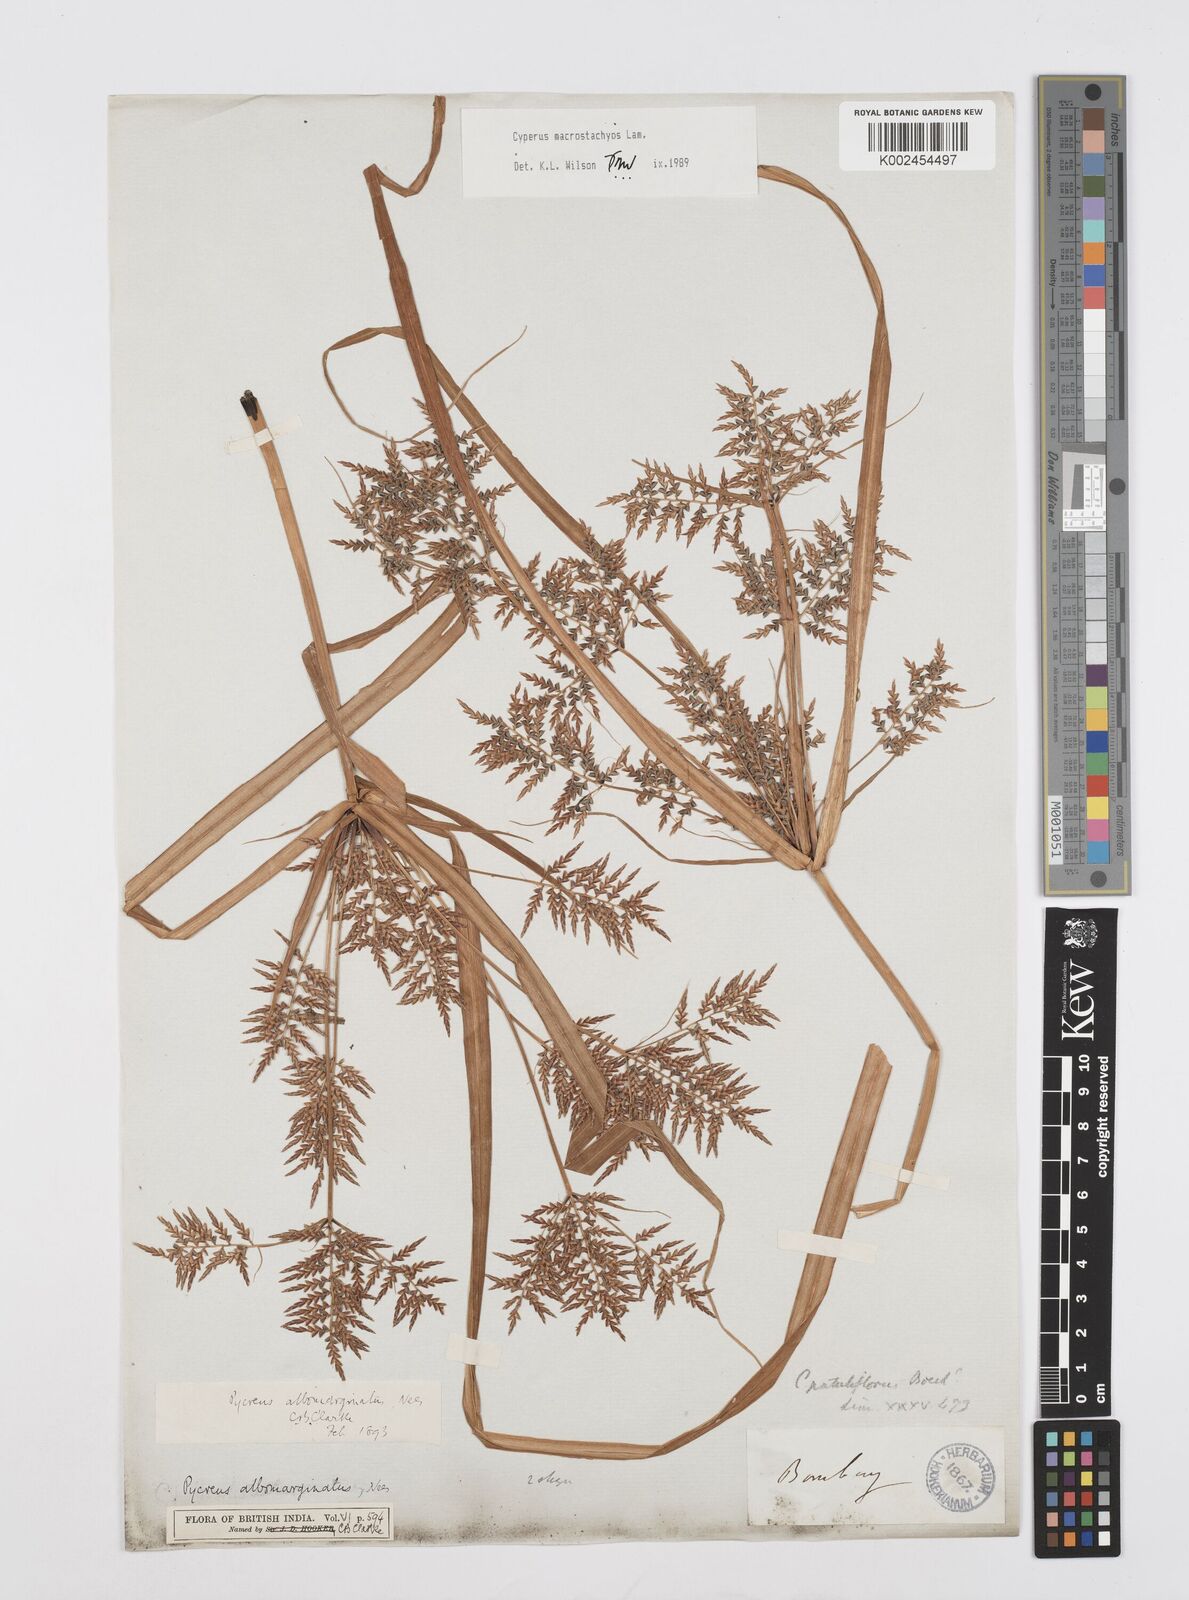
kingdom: Plantae
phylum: Tracheophyta
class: Liliopsida
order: Poales
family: Cyperaceae
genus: Cyperus
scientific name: Cyperus macrostachyos
